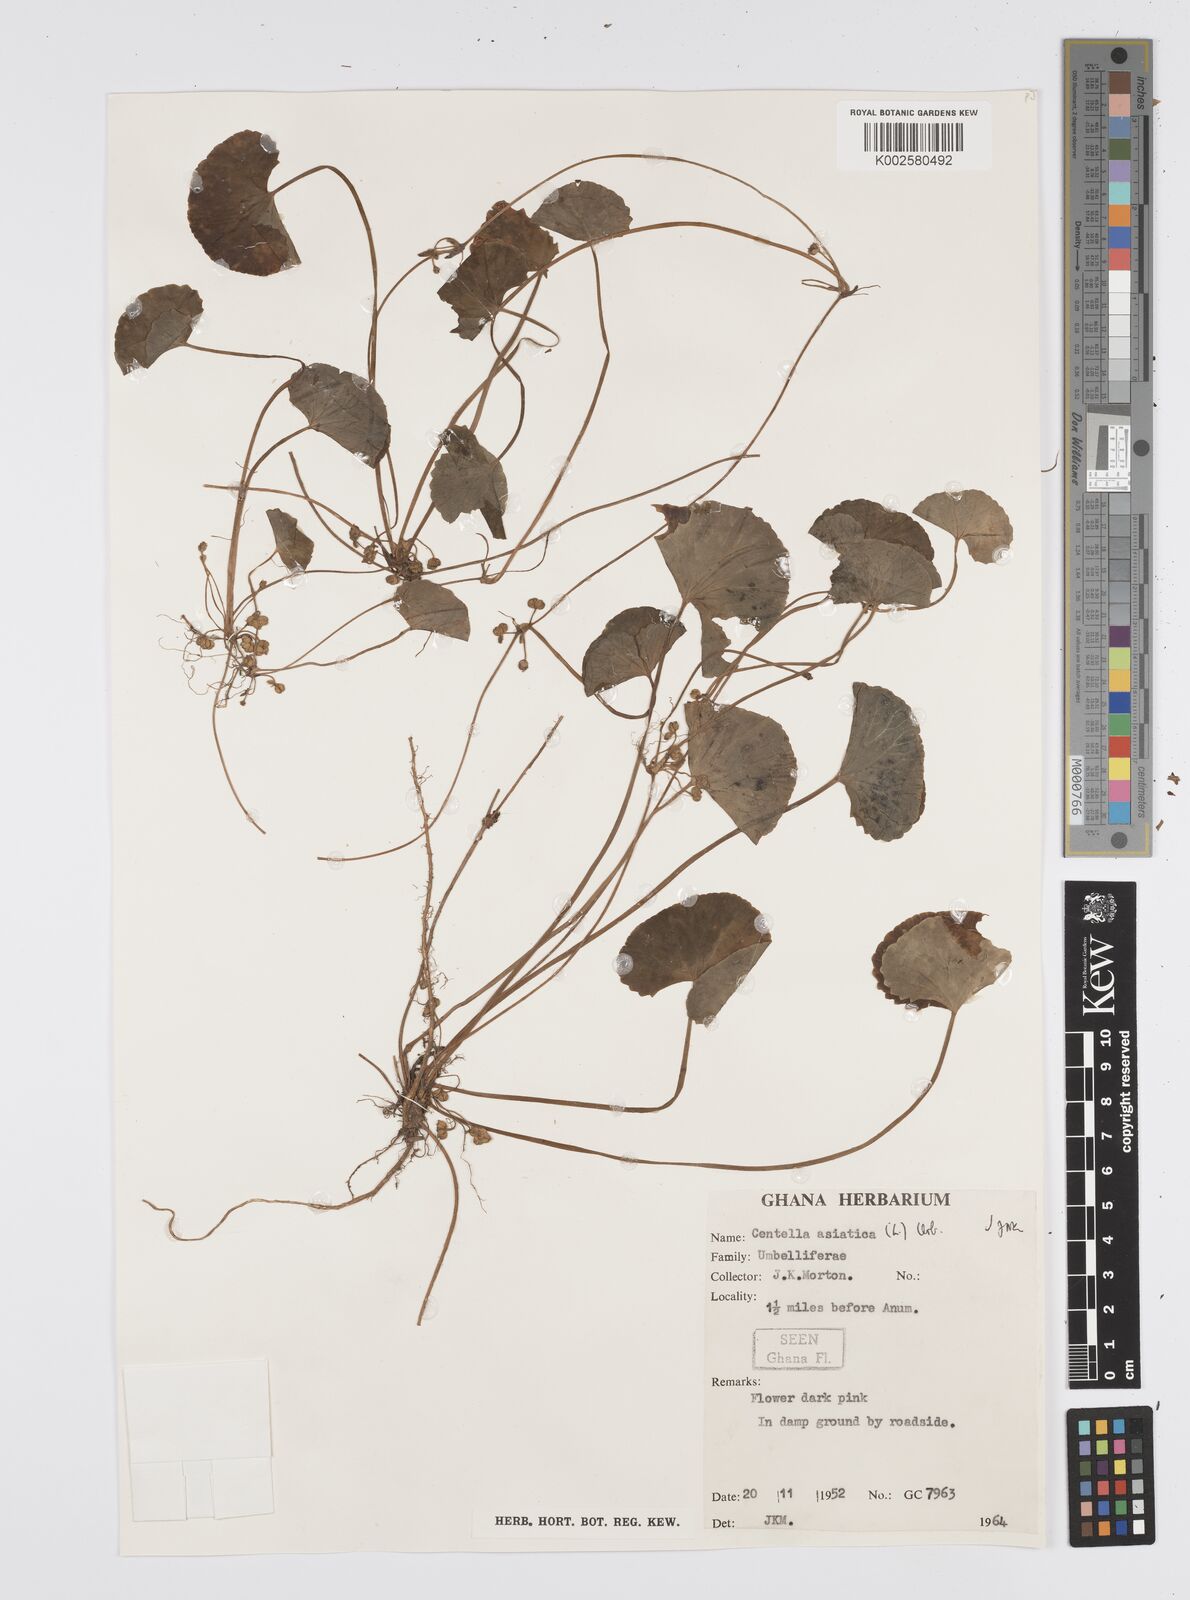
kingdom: Plantae
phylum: Tracheophyta
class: Magnoliopsida
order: Apiales
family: Apiaceae
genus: Centella
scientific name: Centella asiatica
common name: Spadeleaf
